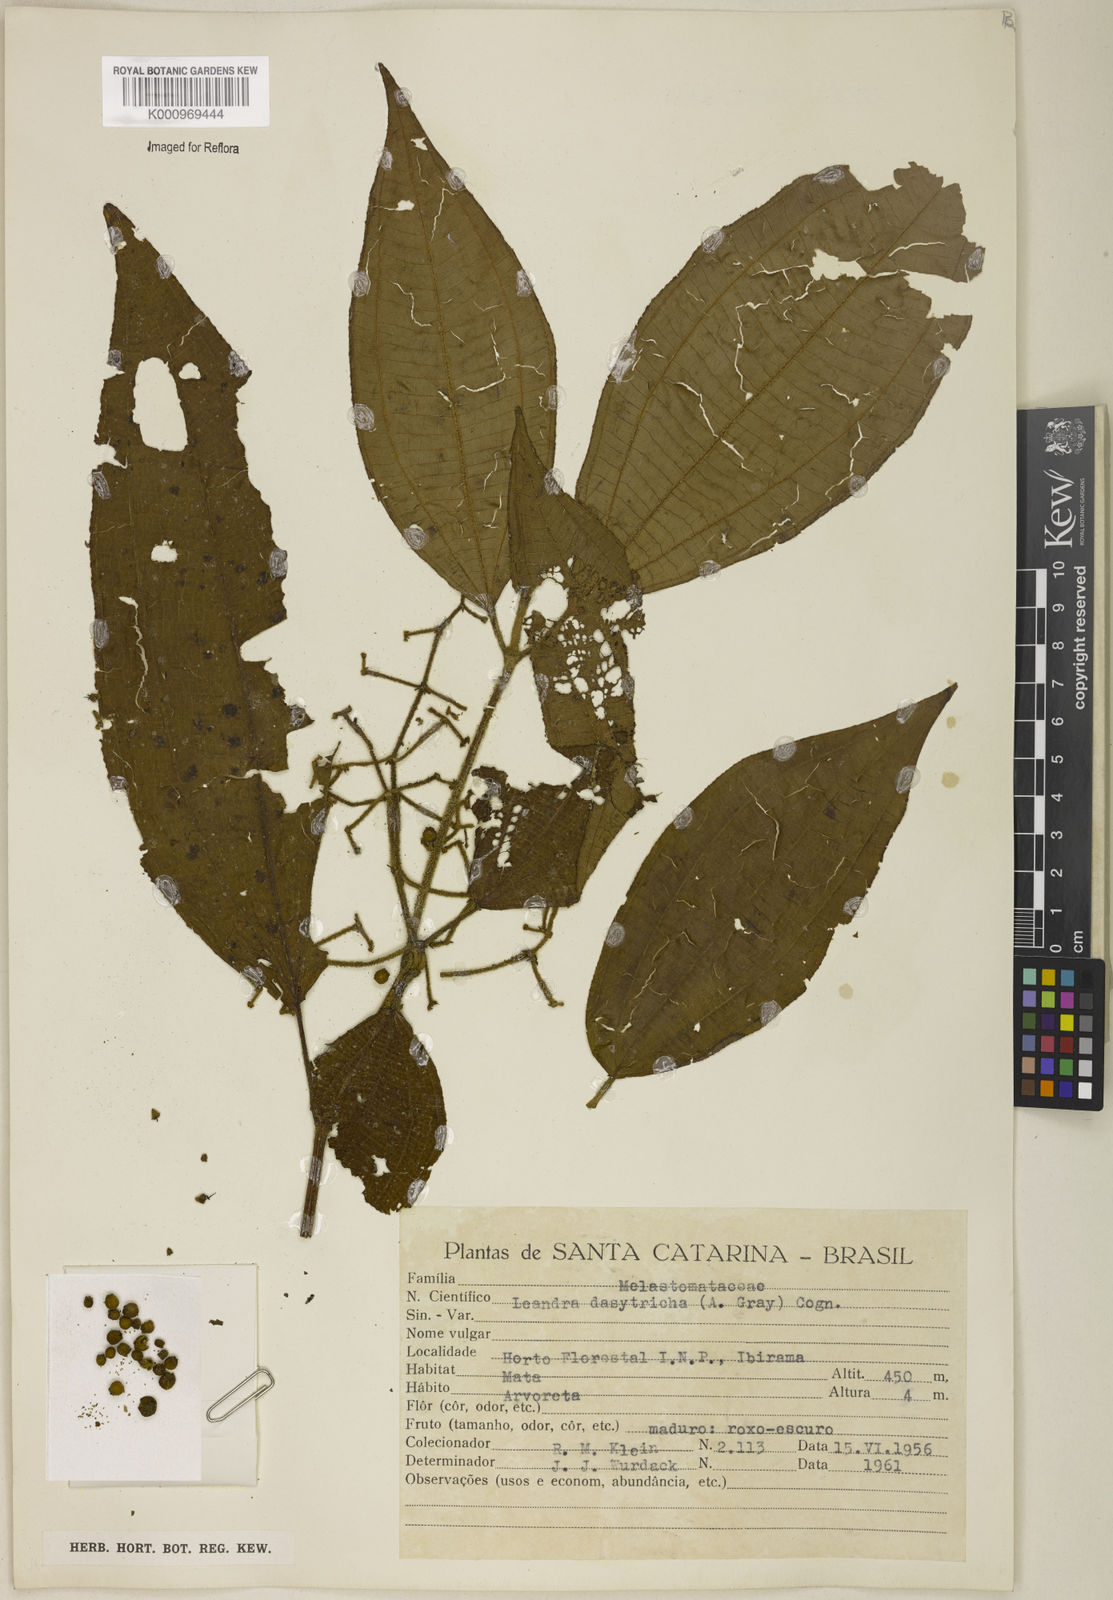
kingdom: Plantae
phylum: Tracheophyta
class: Magnoliopsida
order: Myrtales
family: Melastomataceae
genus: Miconia
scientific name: Miconia dasytricha
